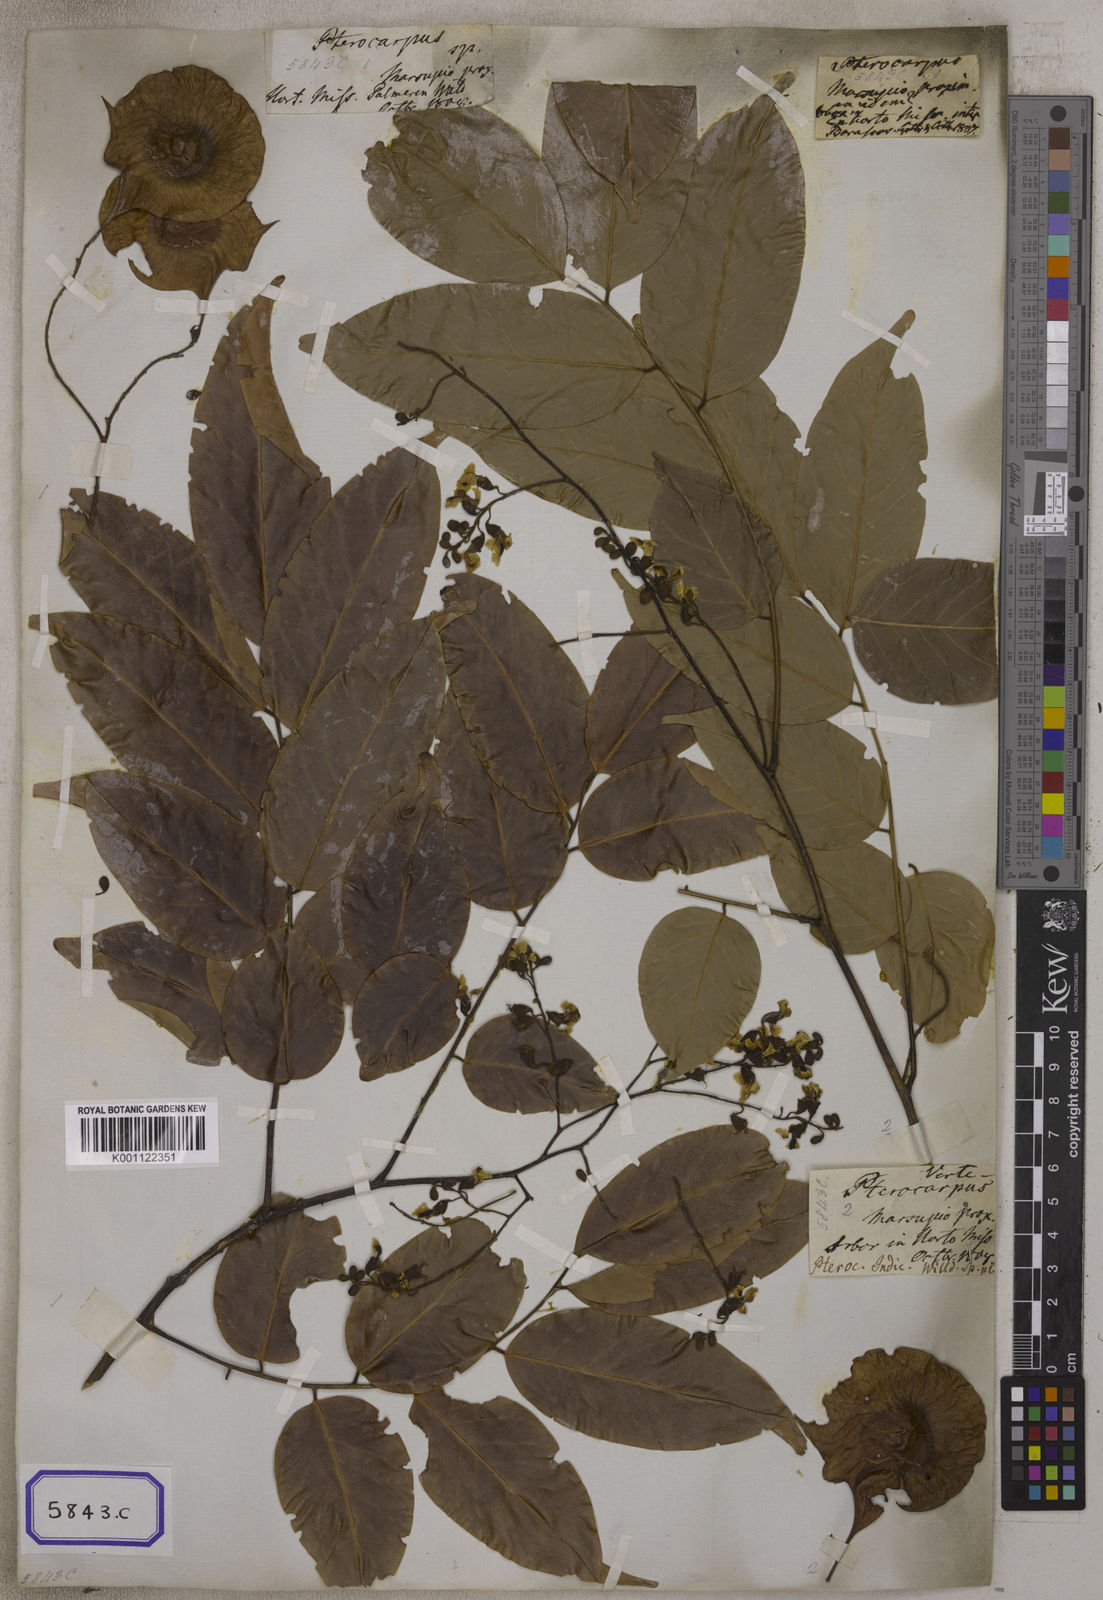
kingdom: Plantae
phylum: Tracheophyta
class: Magnoliopsida
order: Fabales
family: Fabaceae
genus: Pterocarpus
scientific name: Pterocarpus
